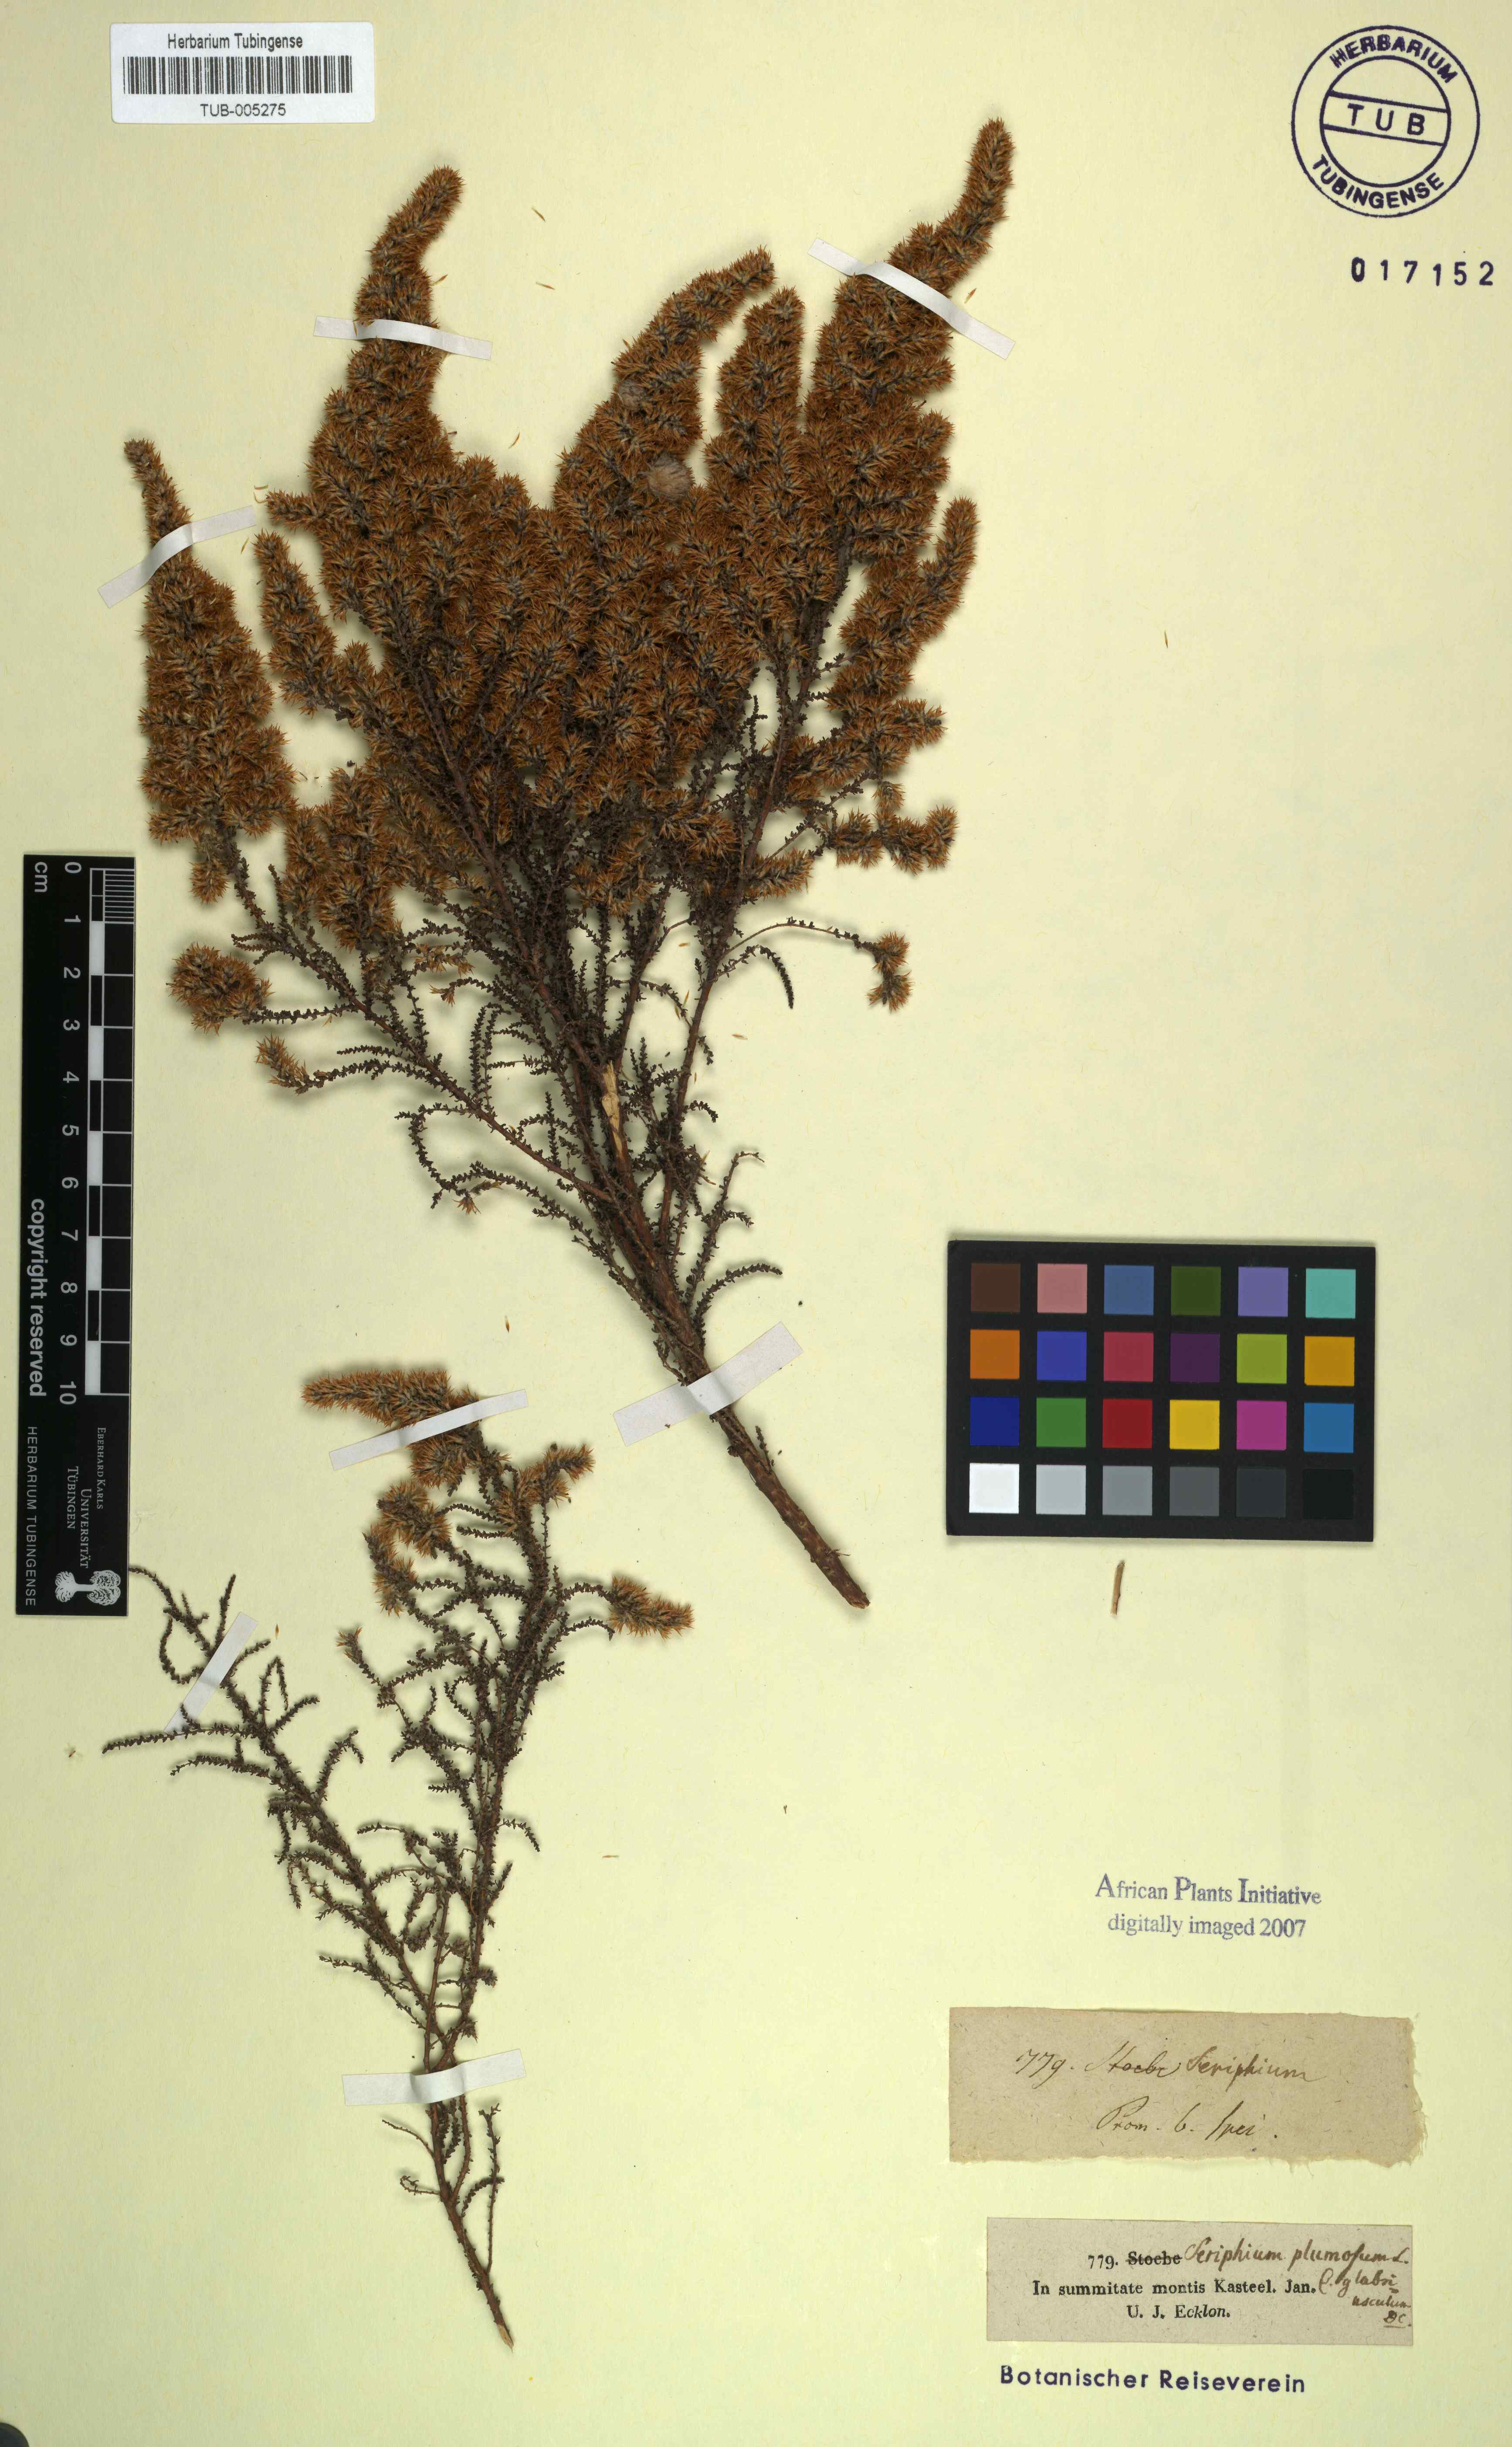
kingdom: Plantae
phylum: Tracheophyta
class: Magnoliopsida
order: Asterales
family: Asteraceae
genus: Seriphium
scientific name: Seriphium cinereum
